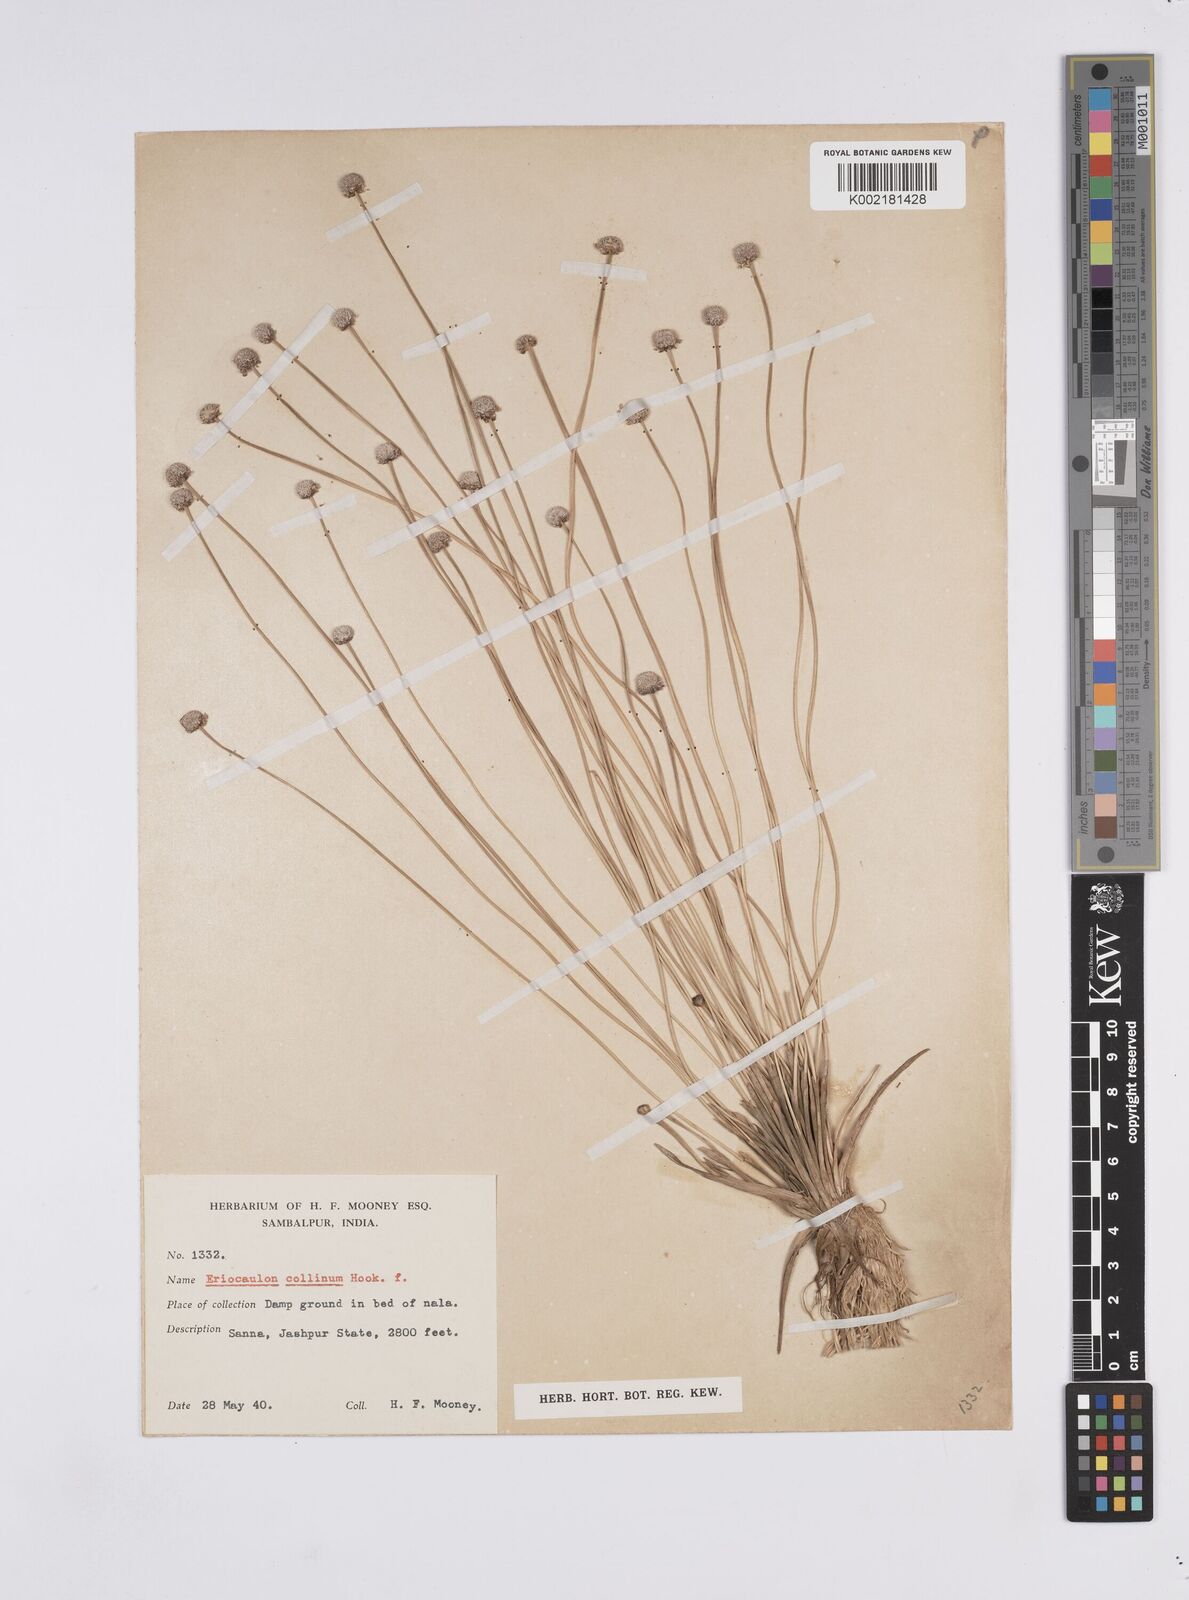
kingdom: Plantae
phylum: Tracheophyta
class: Liliopsida
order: Poales
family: Eriocaulaceae
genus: Eriocaulon
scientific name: Eriocaulon odoratum
